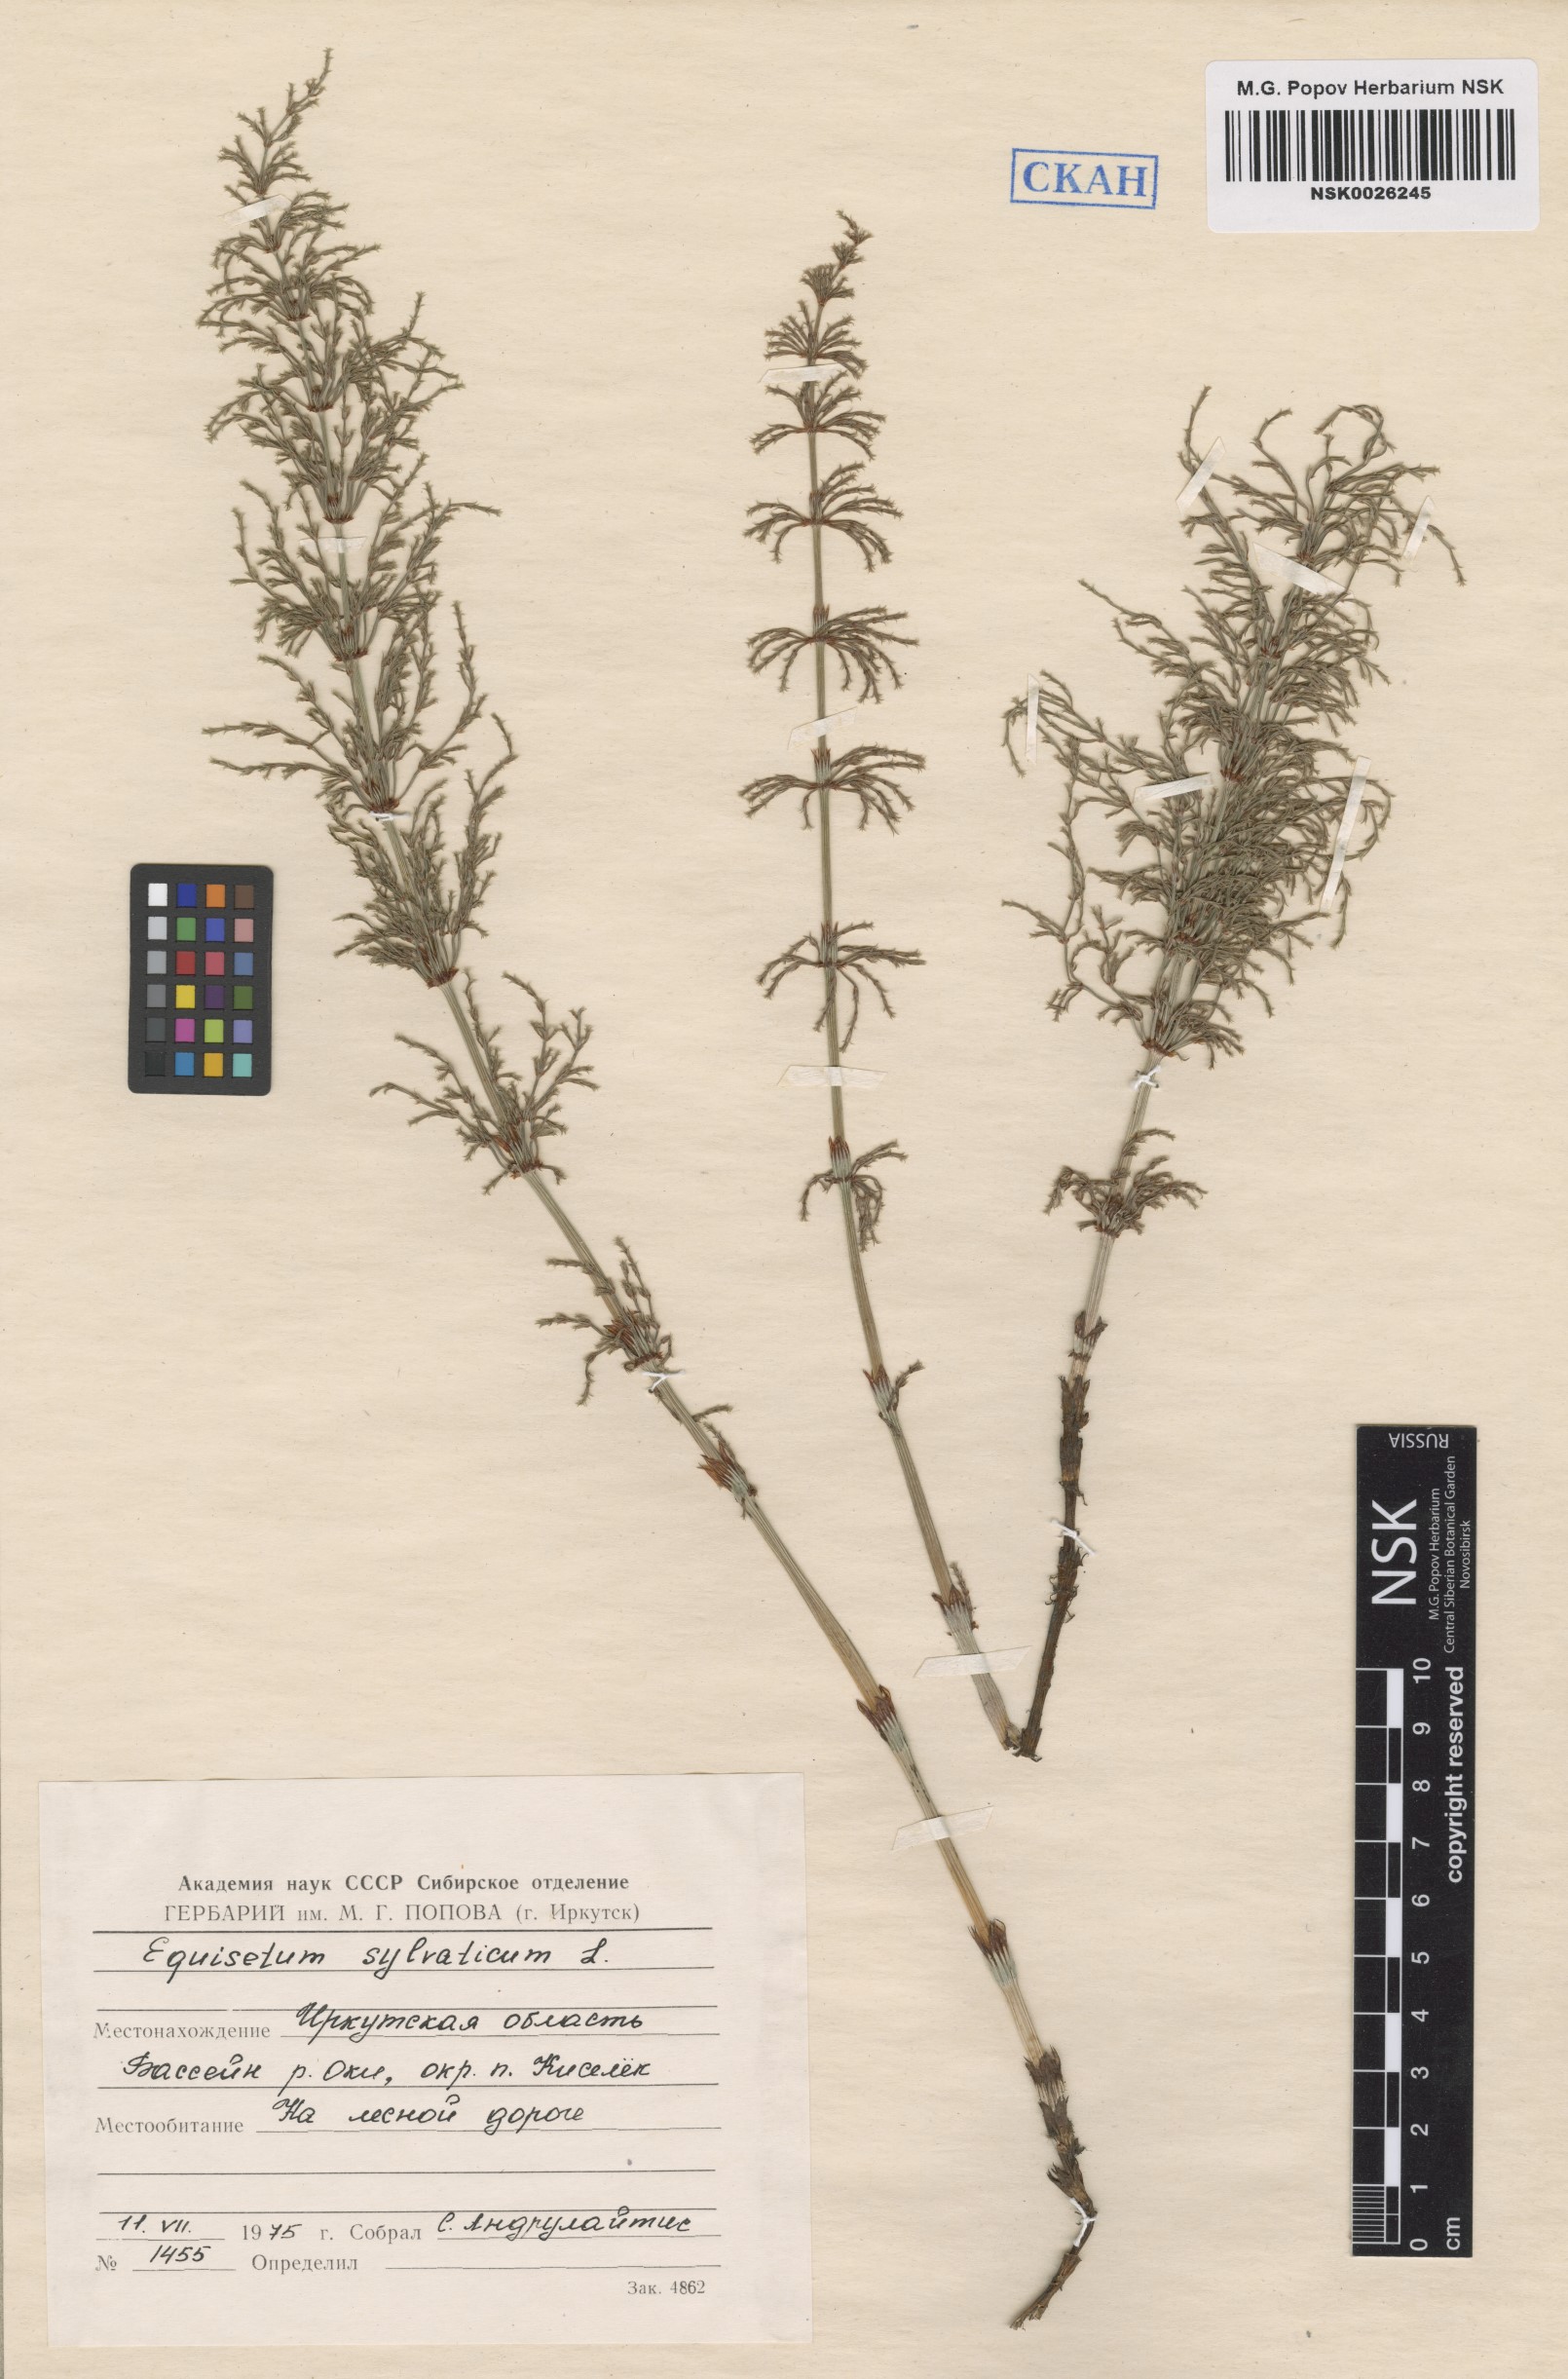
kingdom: Plantae
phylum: Tracheophyta
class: Polypodiopsida
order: Equisetales
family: Equisetaceae
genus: Equisetum
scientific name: Equisetum sylvaticum
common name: Wood horsetail
